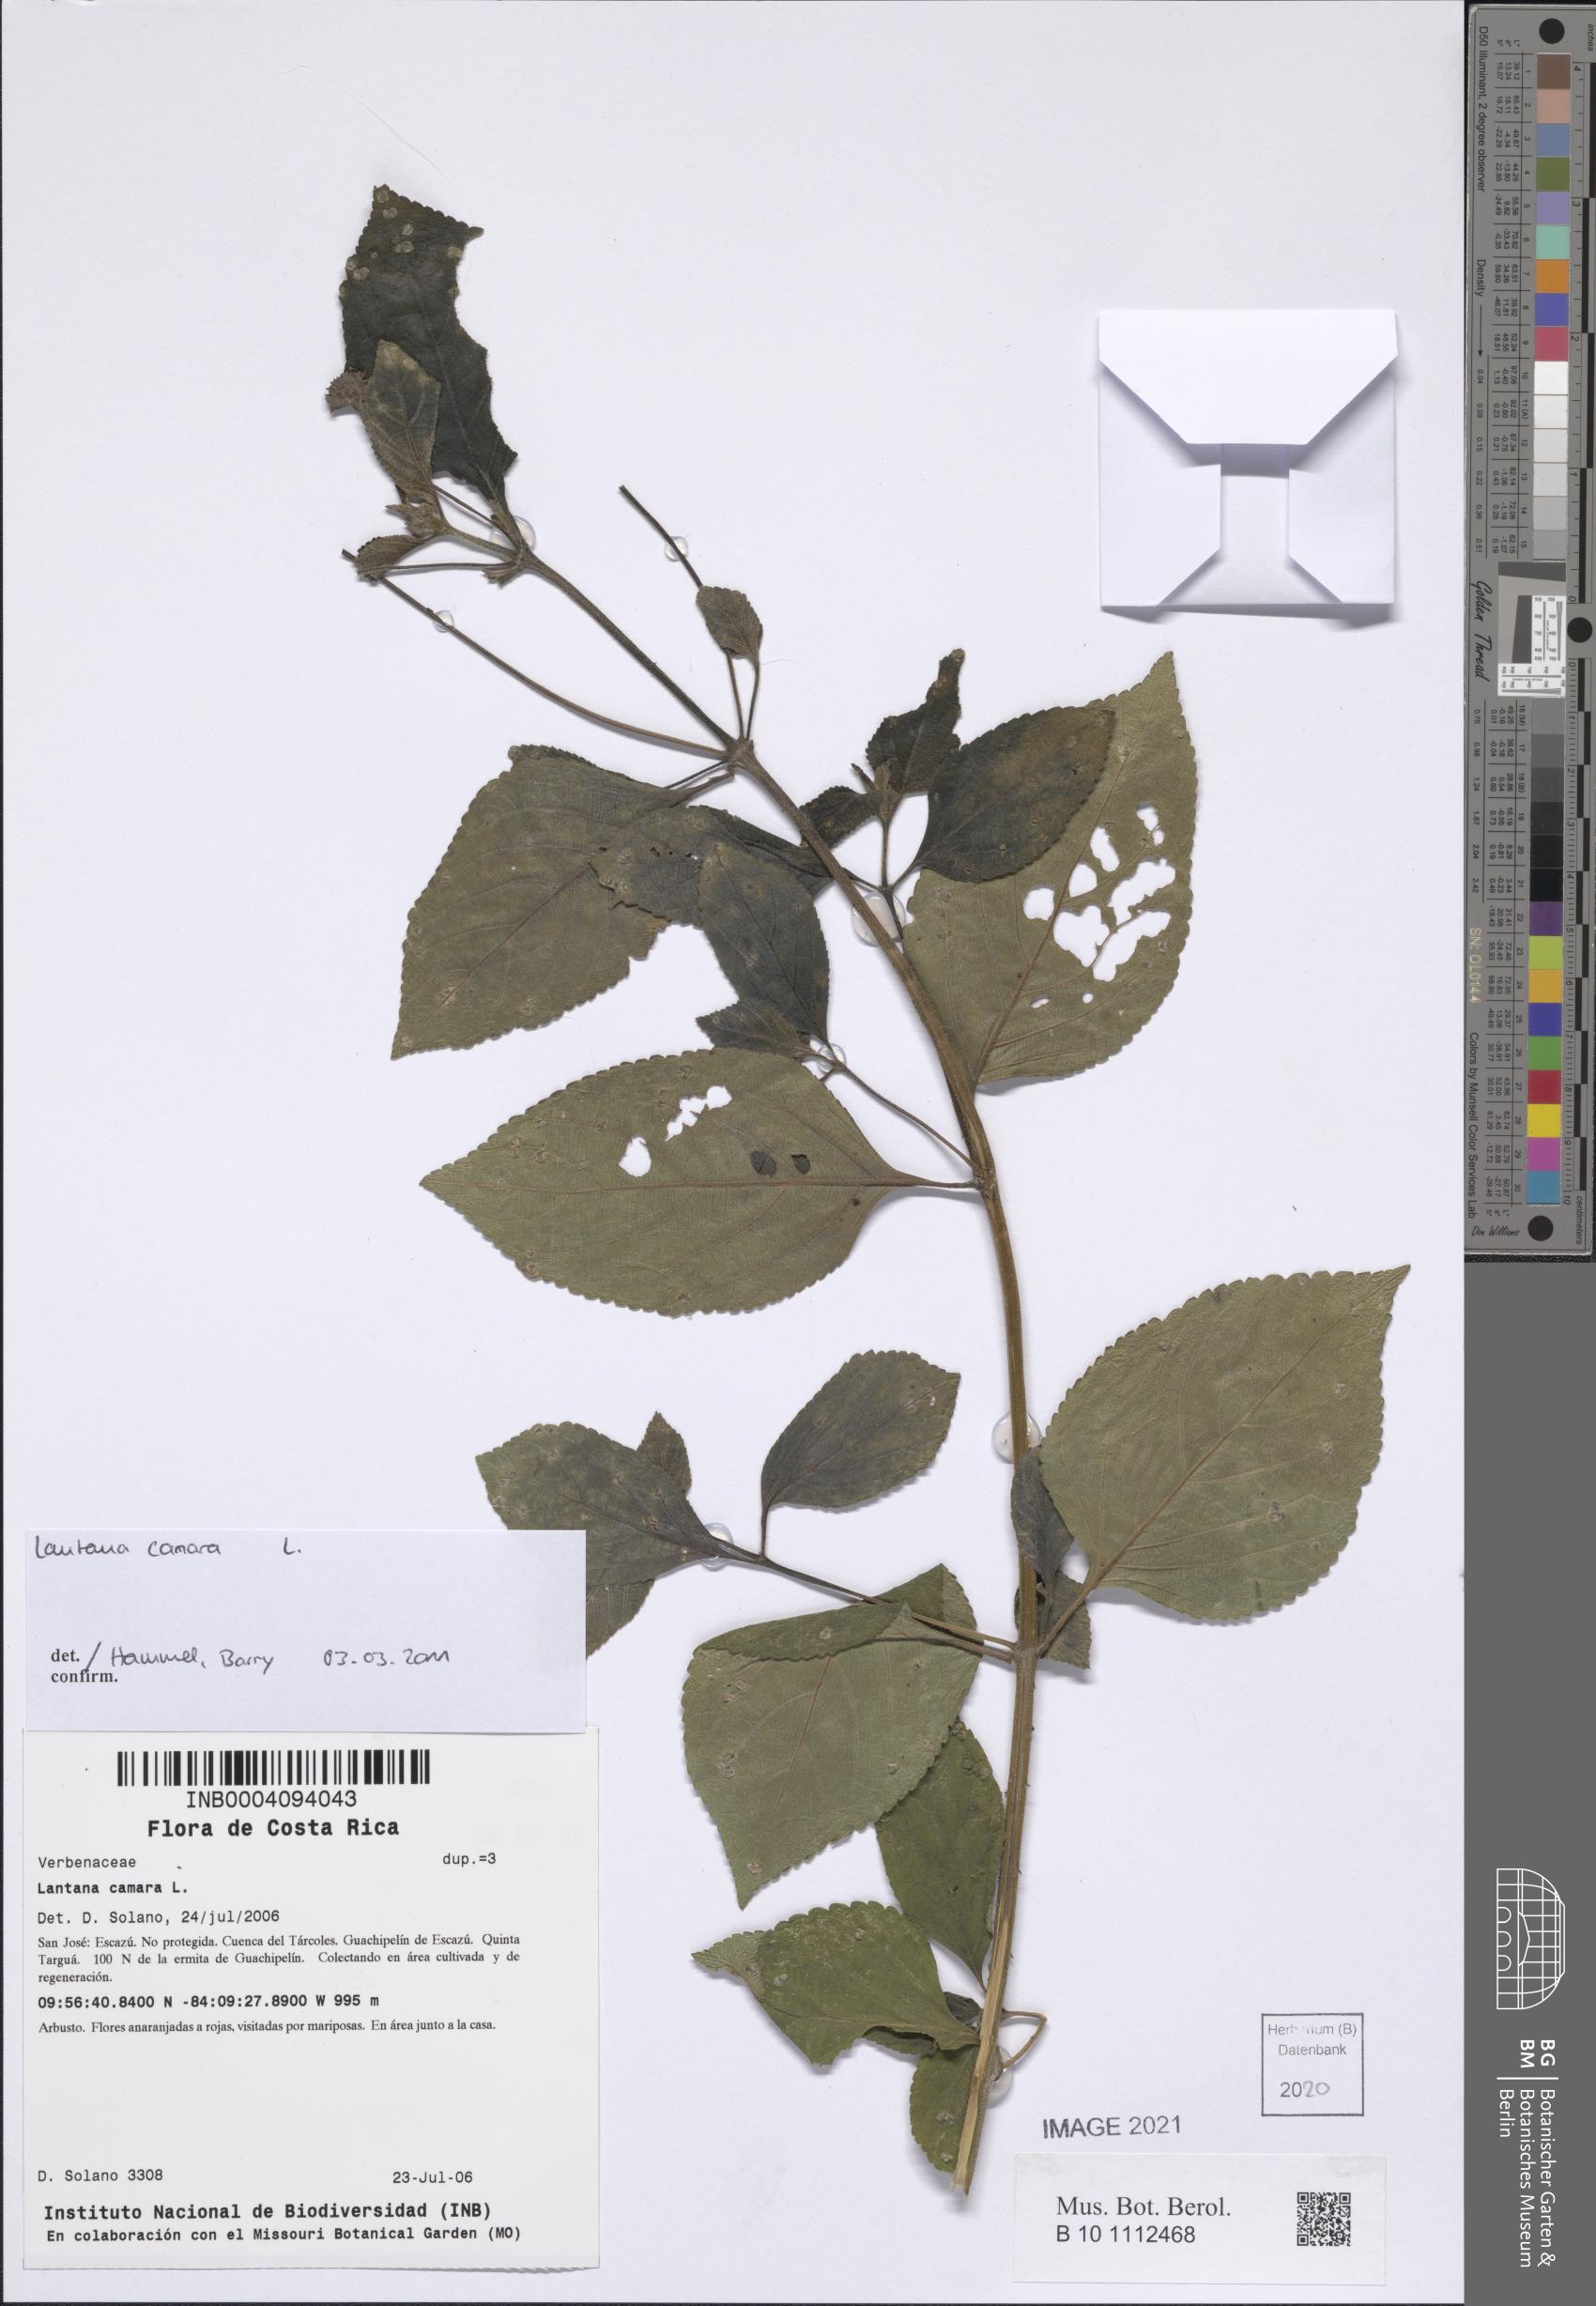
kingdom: Plantae
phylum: Tracheophyta
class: Magnoliopsida
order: Lamiales
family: Verbenaceae
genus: Lantana
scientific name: Lantana camara
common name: Lantana
